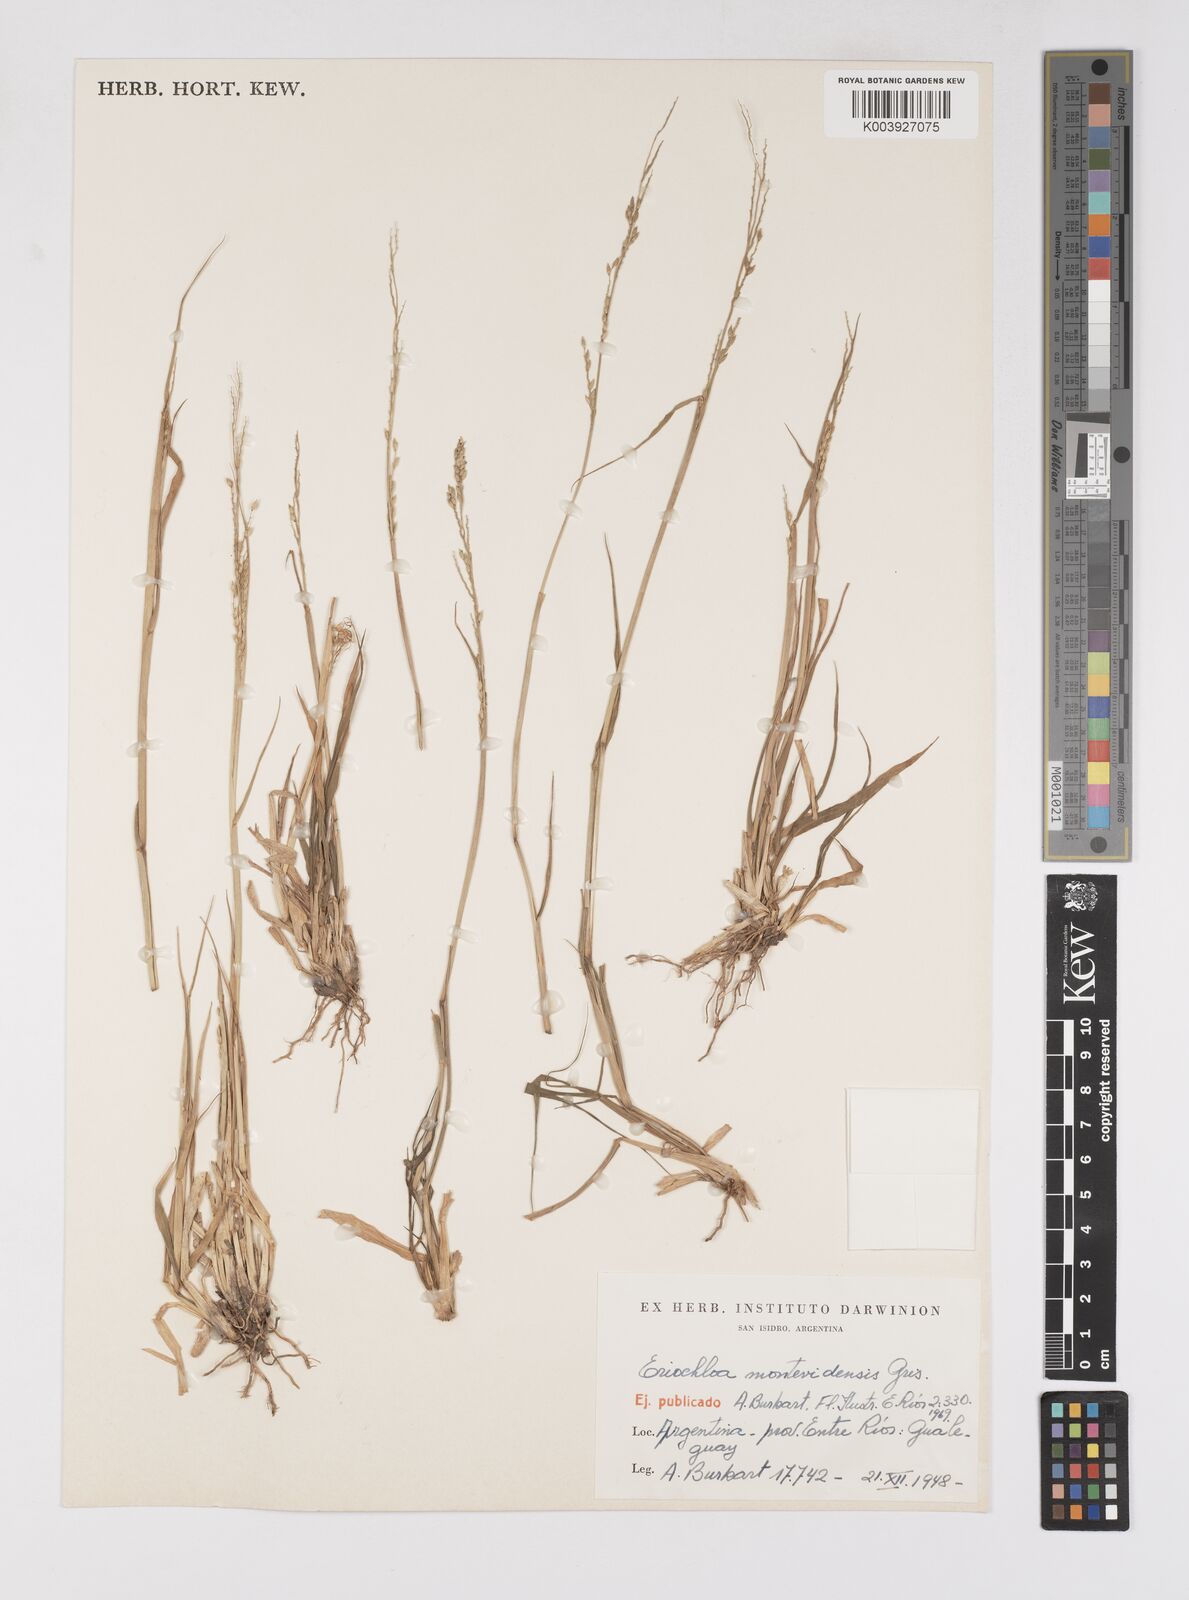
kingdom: Plantae
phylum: Tracheophyta
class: Liliopsida
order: Poales
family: Poaceae
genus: Eriochloa
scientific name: Eriochloa montevidensis
